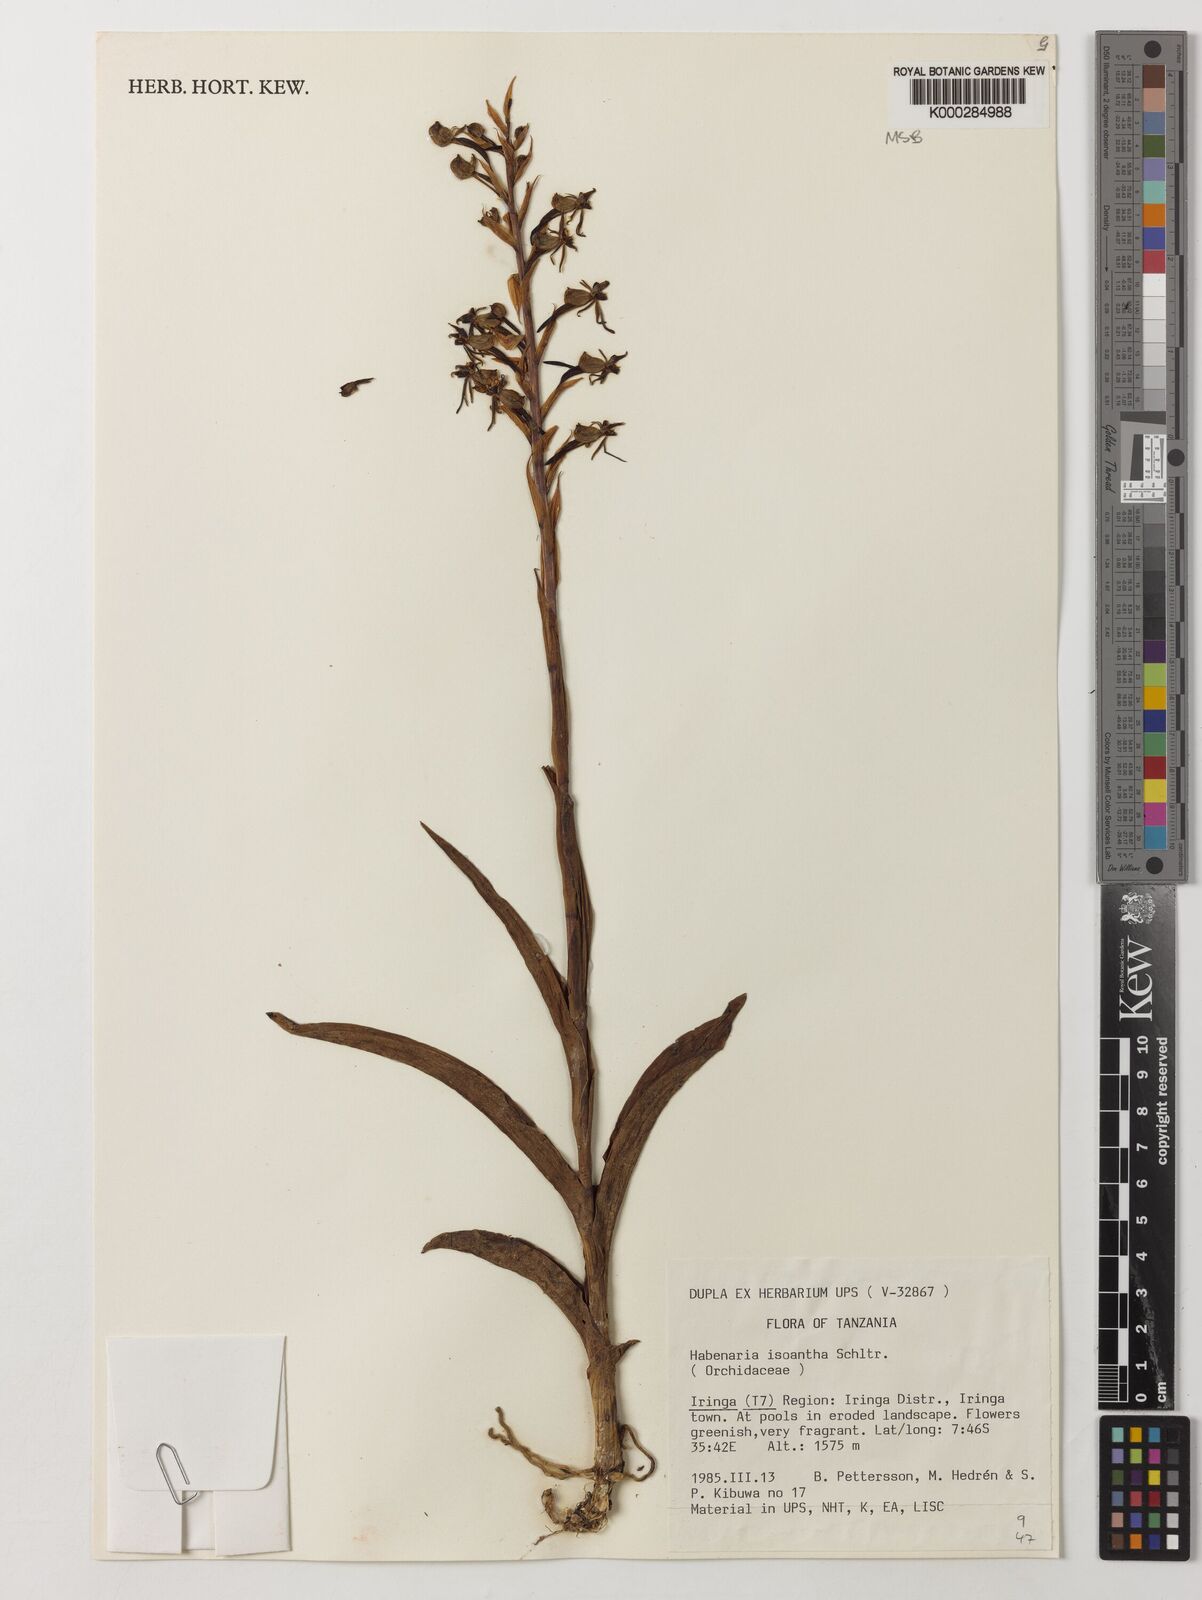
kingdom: Plantae
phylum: Tracheophyta
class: Liliopsida
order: Asparagales
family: Orchidaceae
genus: Habenaria
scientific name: Habenaria isoantha
